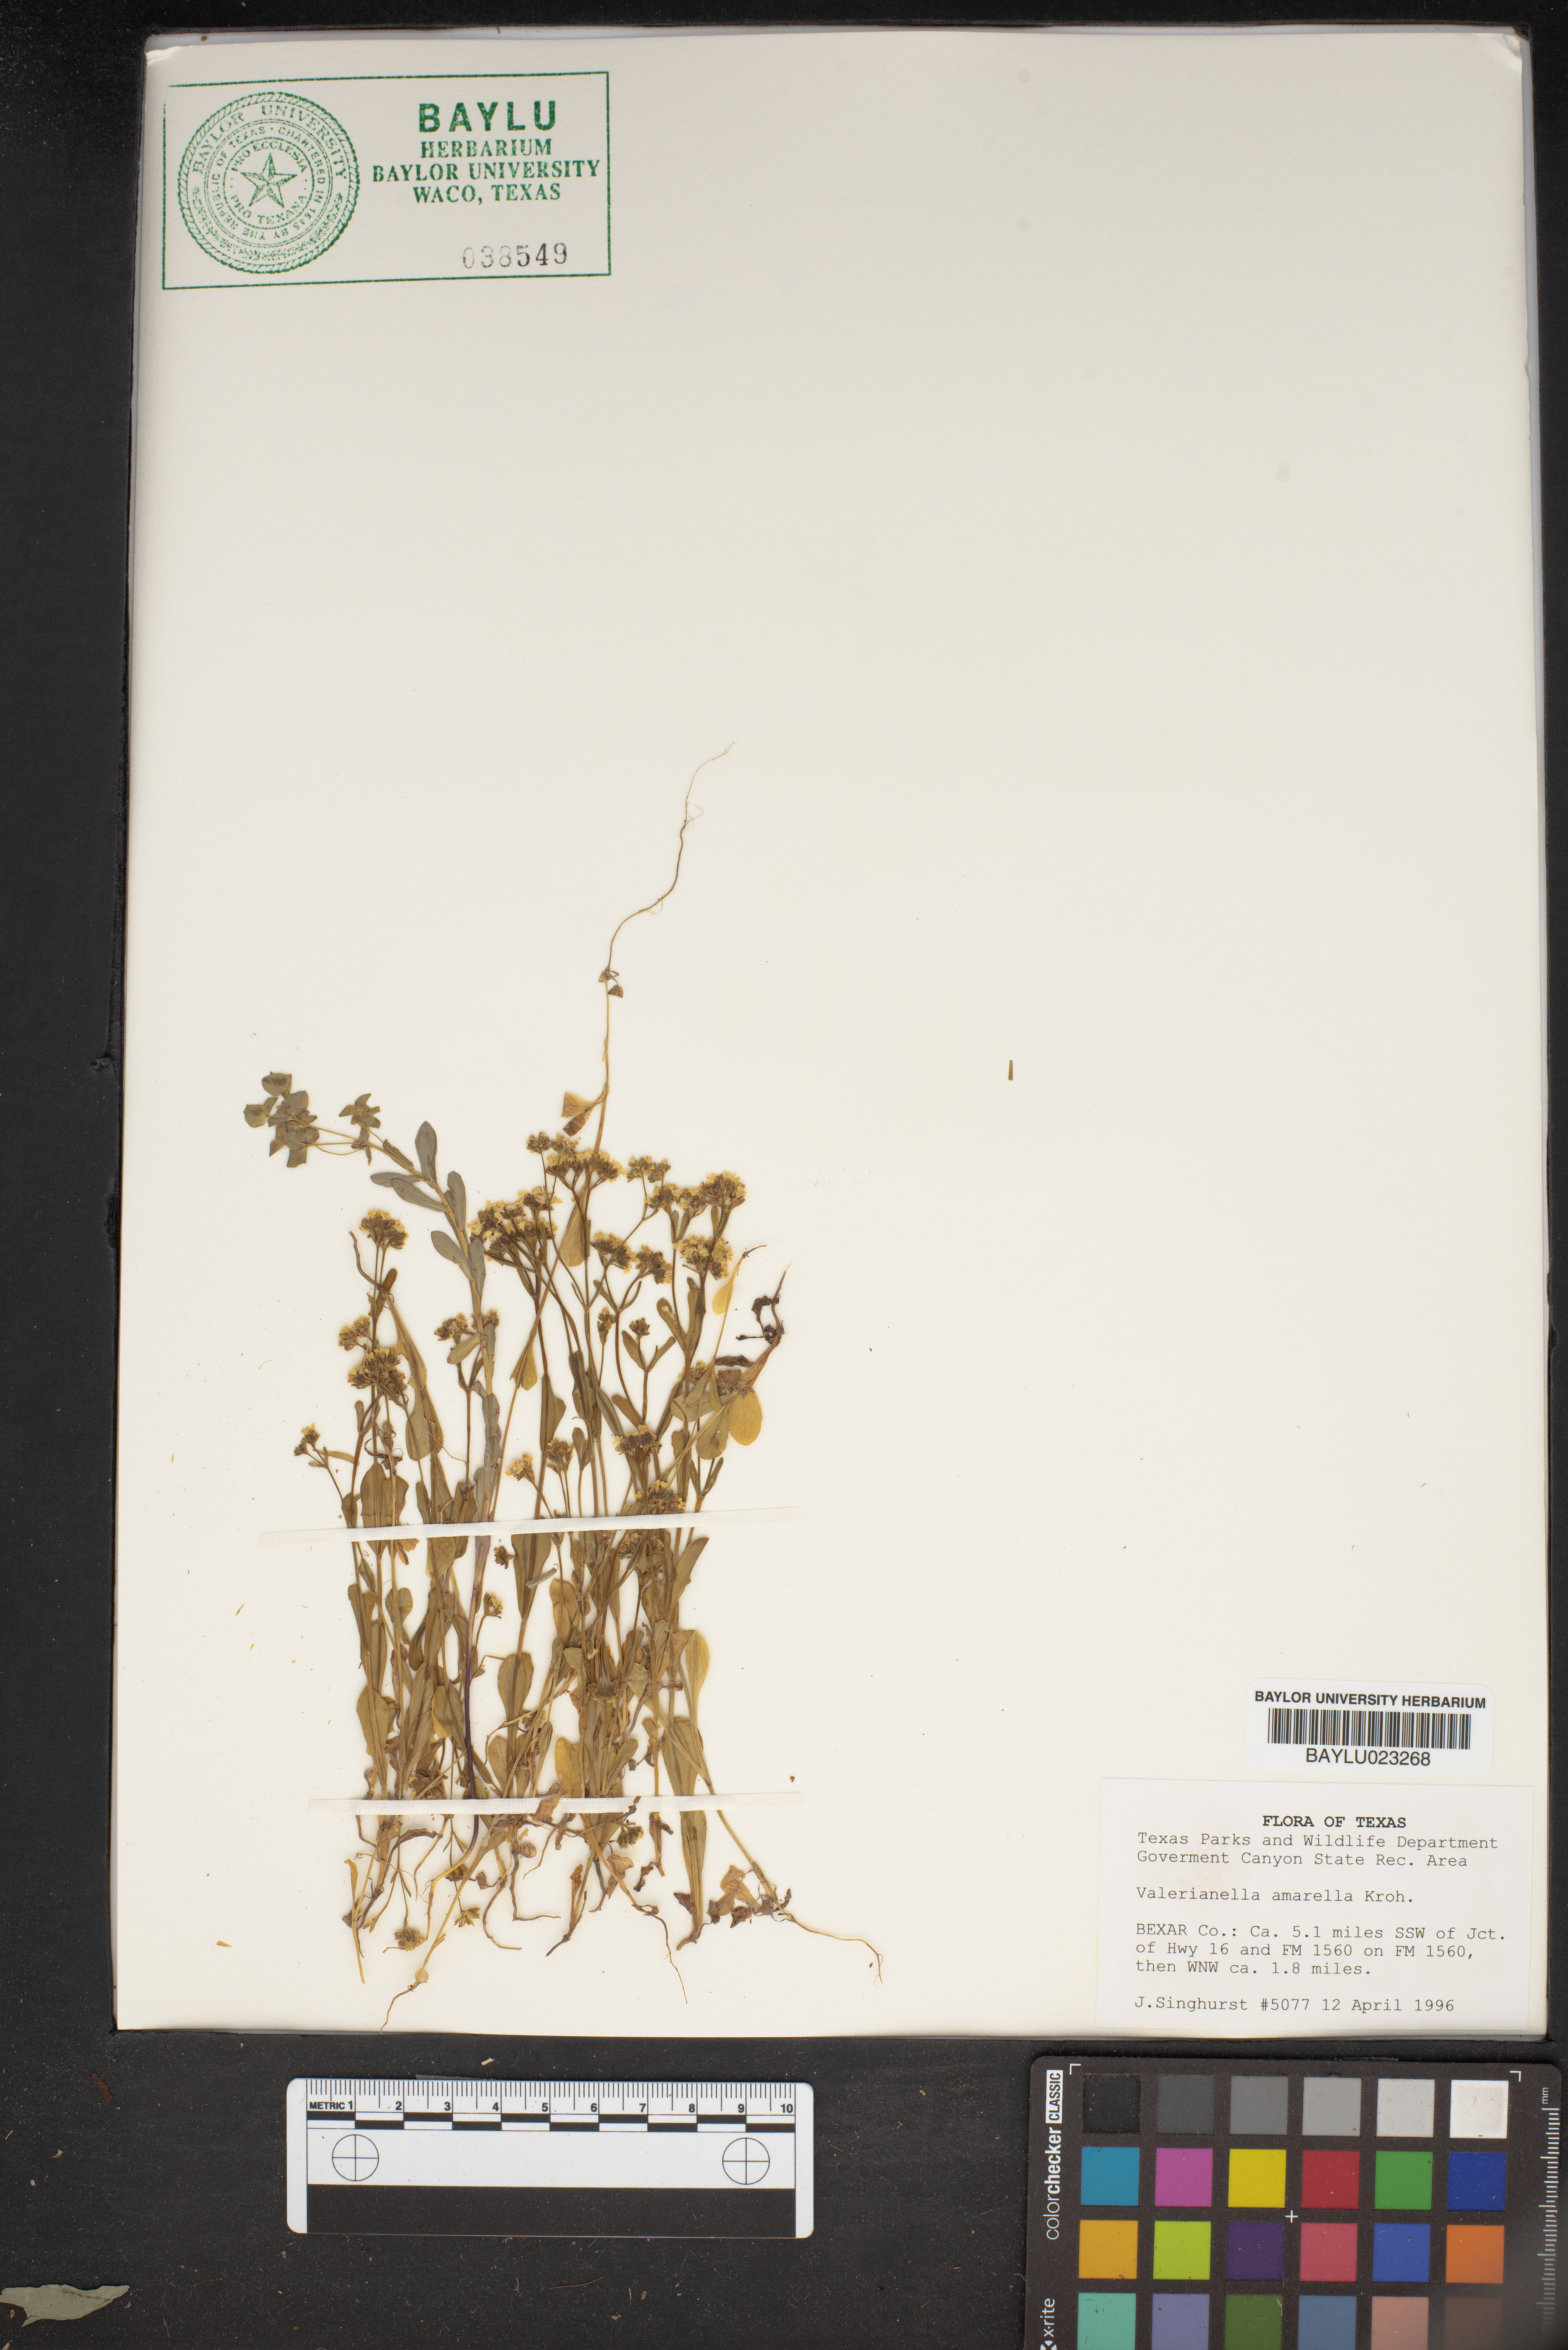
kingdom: Plantae
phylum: Tracheophyta
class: Magnoliopsida
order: Dipsacales
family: Caprifoliaceae
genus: Valerianella
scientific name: Valerianella amarella
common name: Hariy cornsalad
